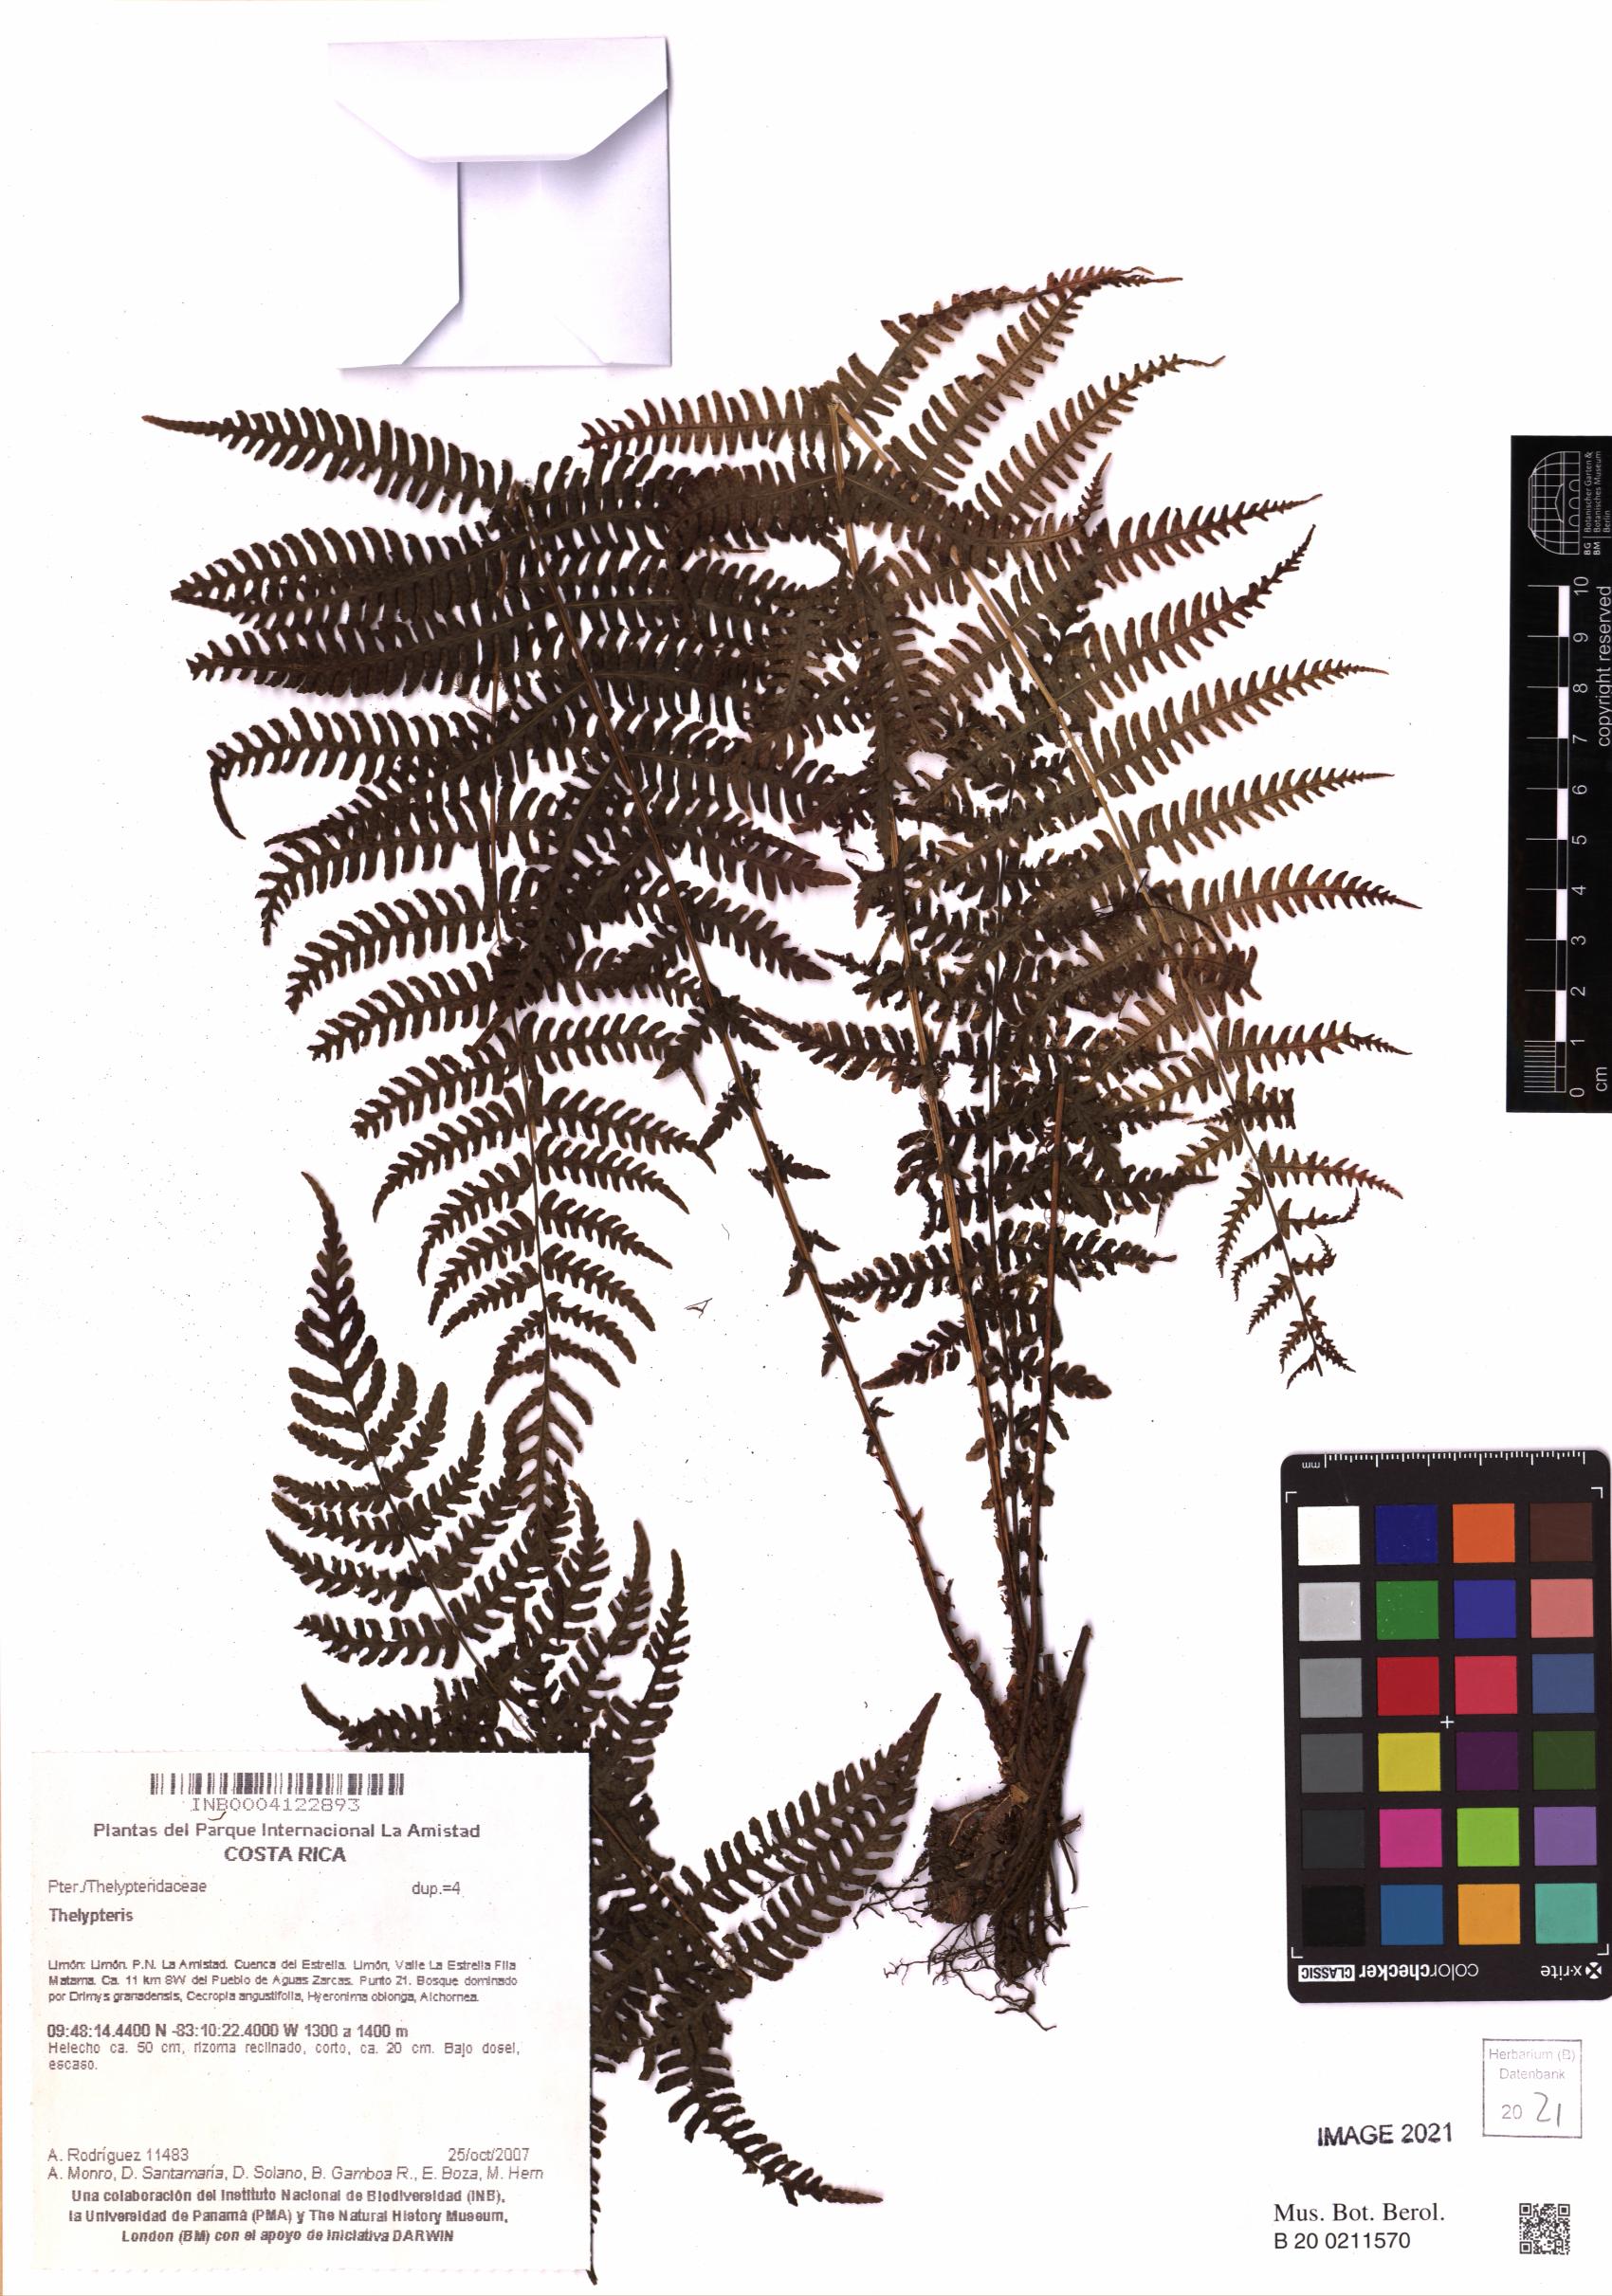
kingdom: Plantae
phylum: Tracheophyta
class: Polypodiopsida
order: Polypodiales
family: Thelypteridaceae
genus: Thelypteris
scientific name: Thelypteris
